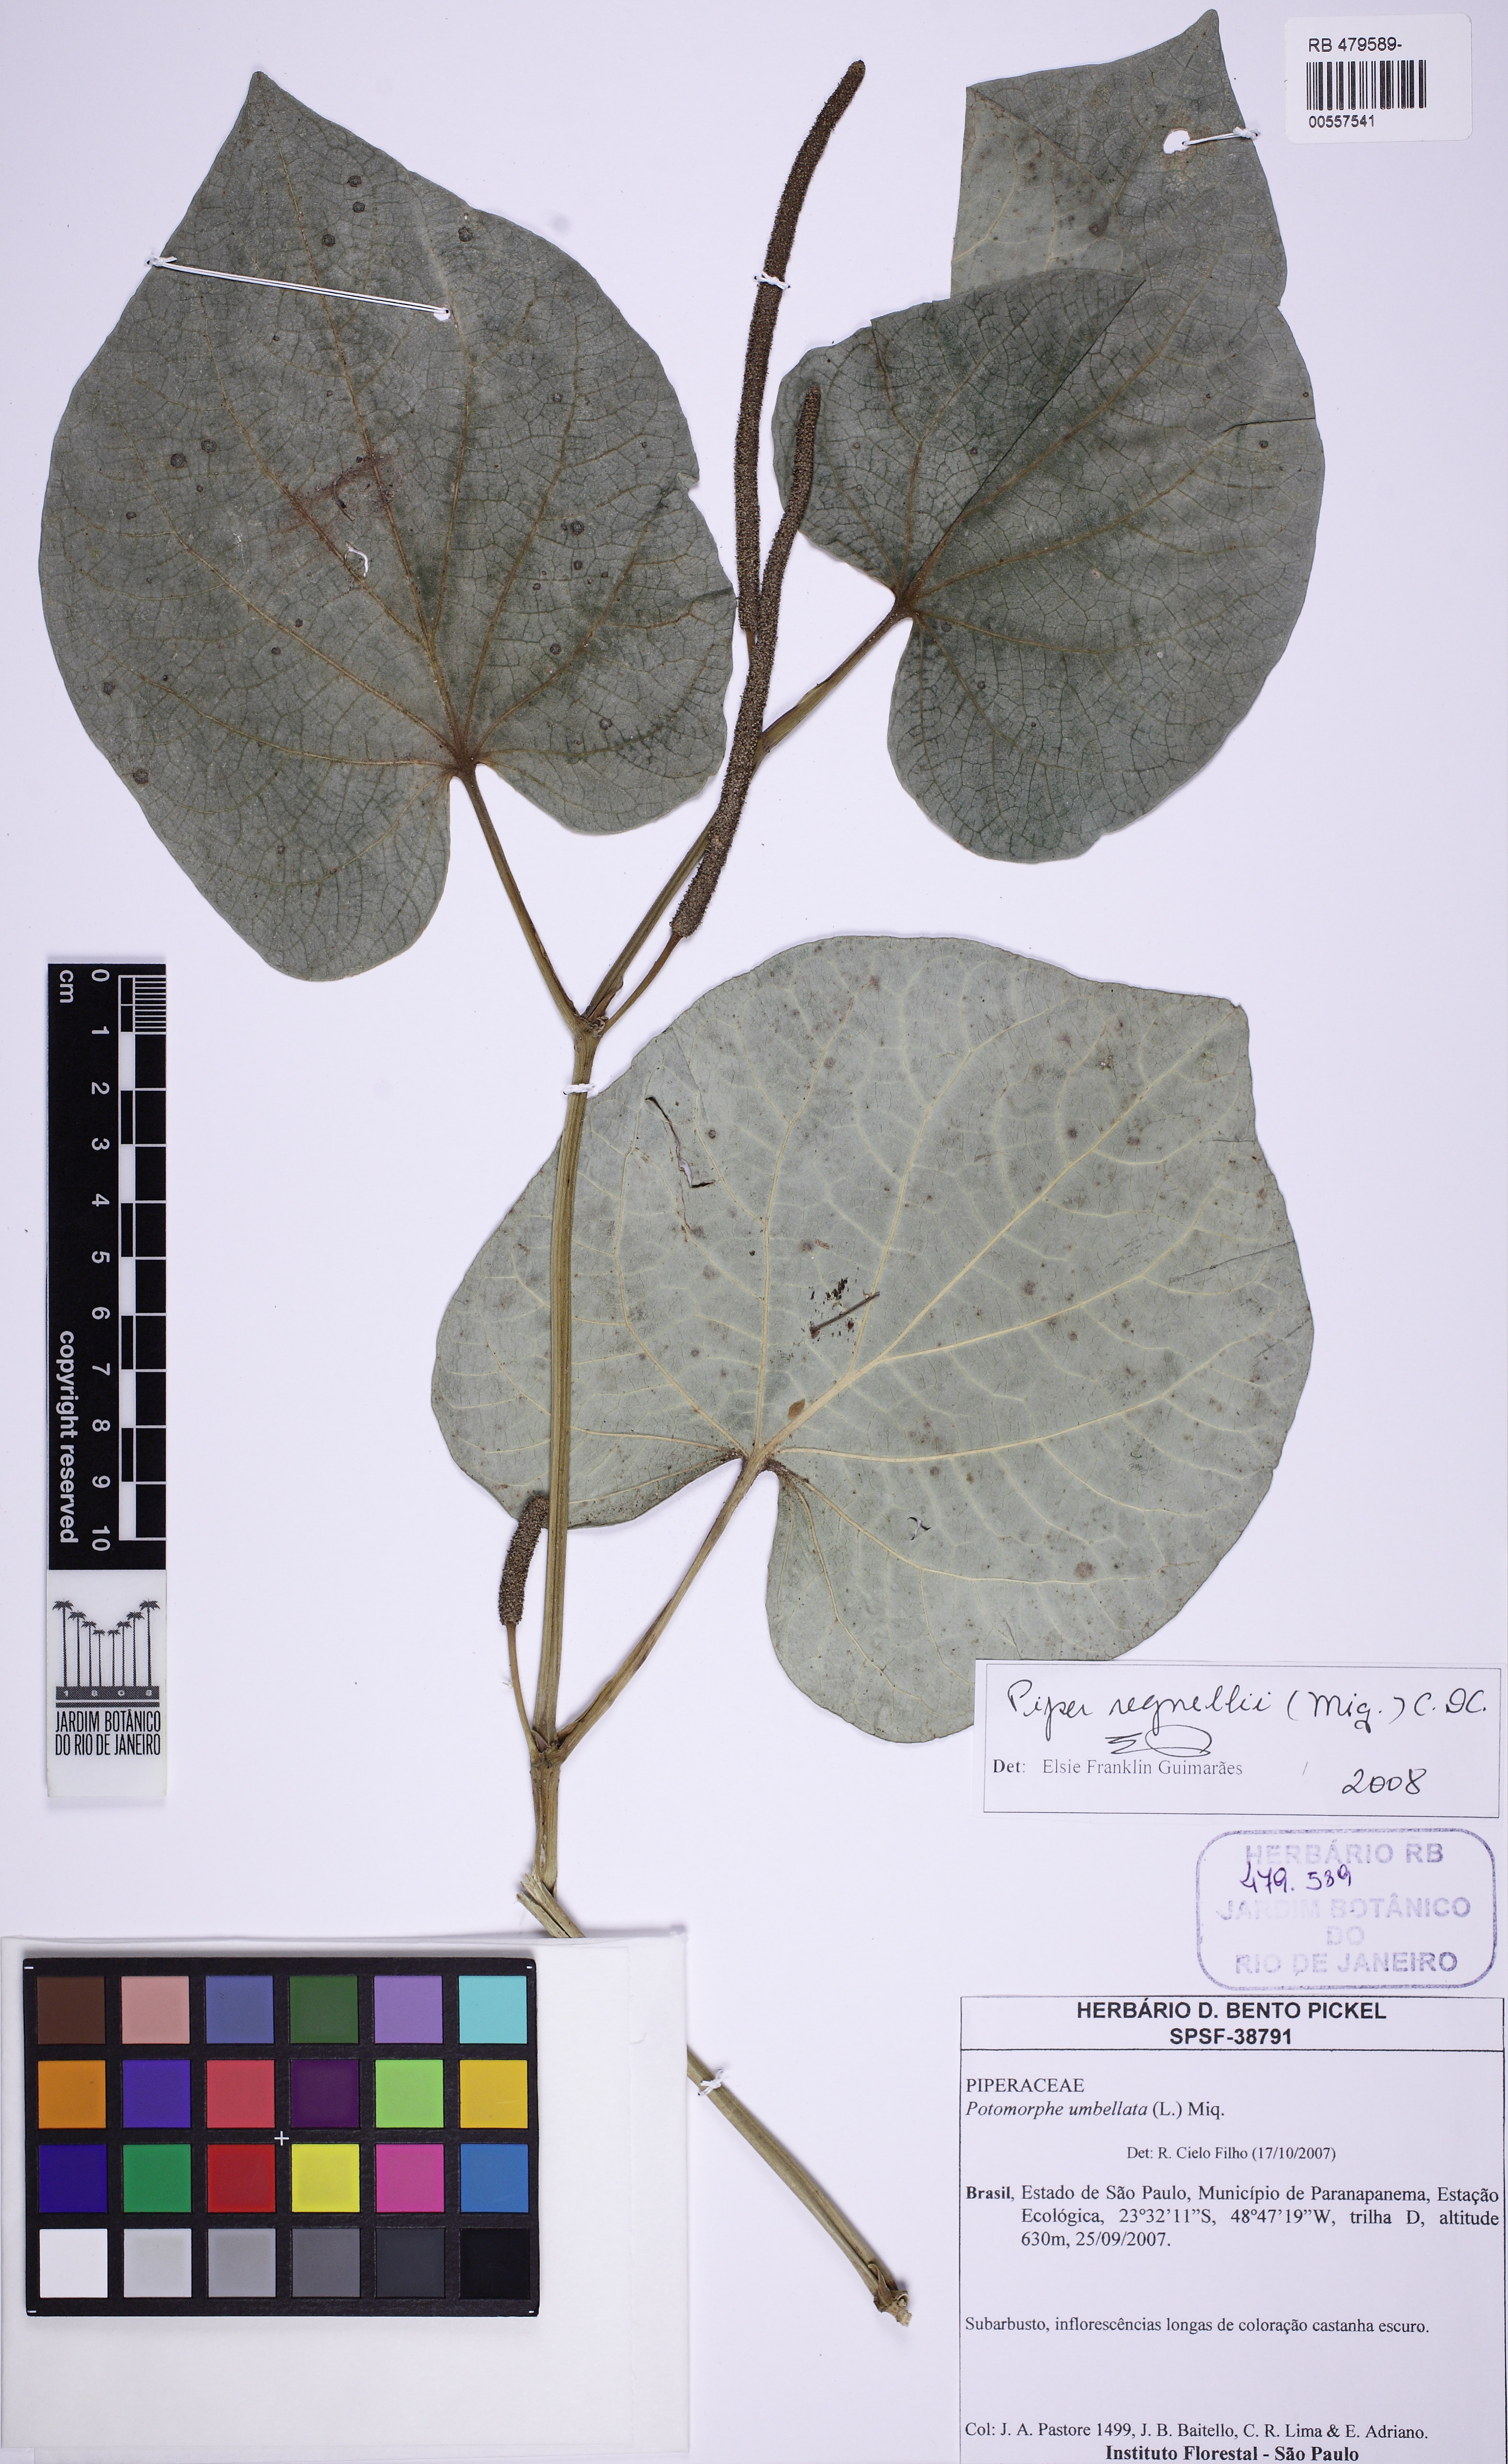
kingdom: Plantae
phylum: Tracheophyta
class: Magnoliopsida
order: Piperales
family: Piperaceae
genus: Piper
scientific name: Piper regnellii
